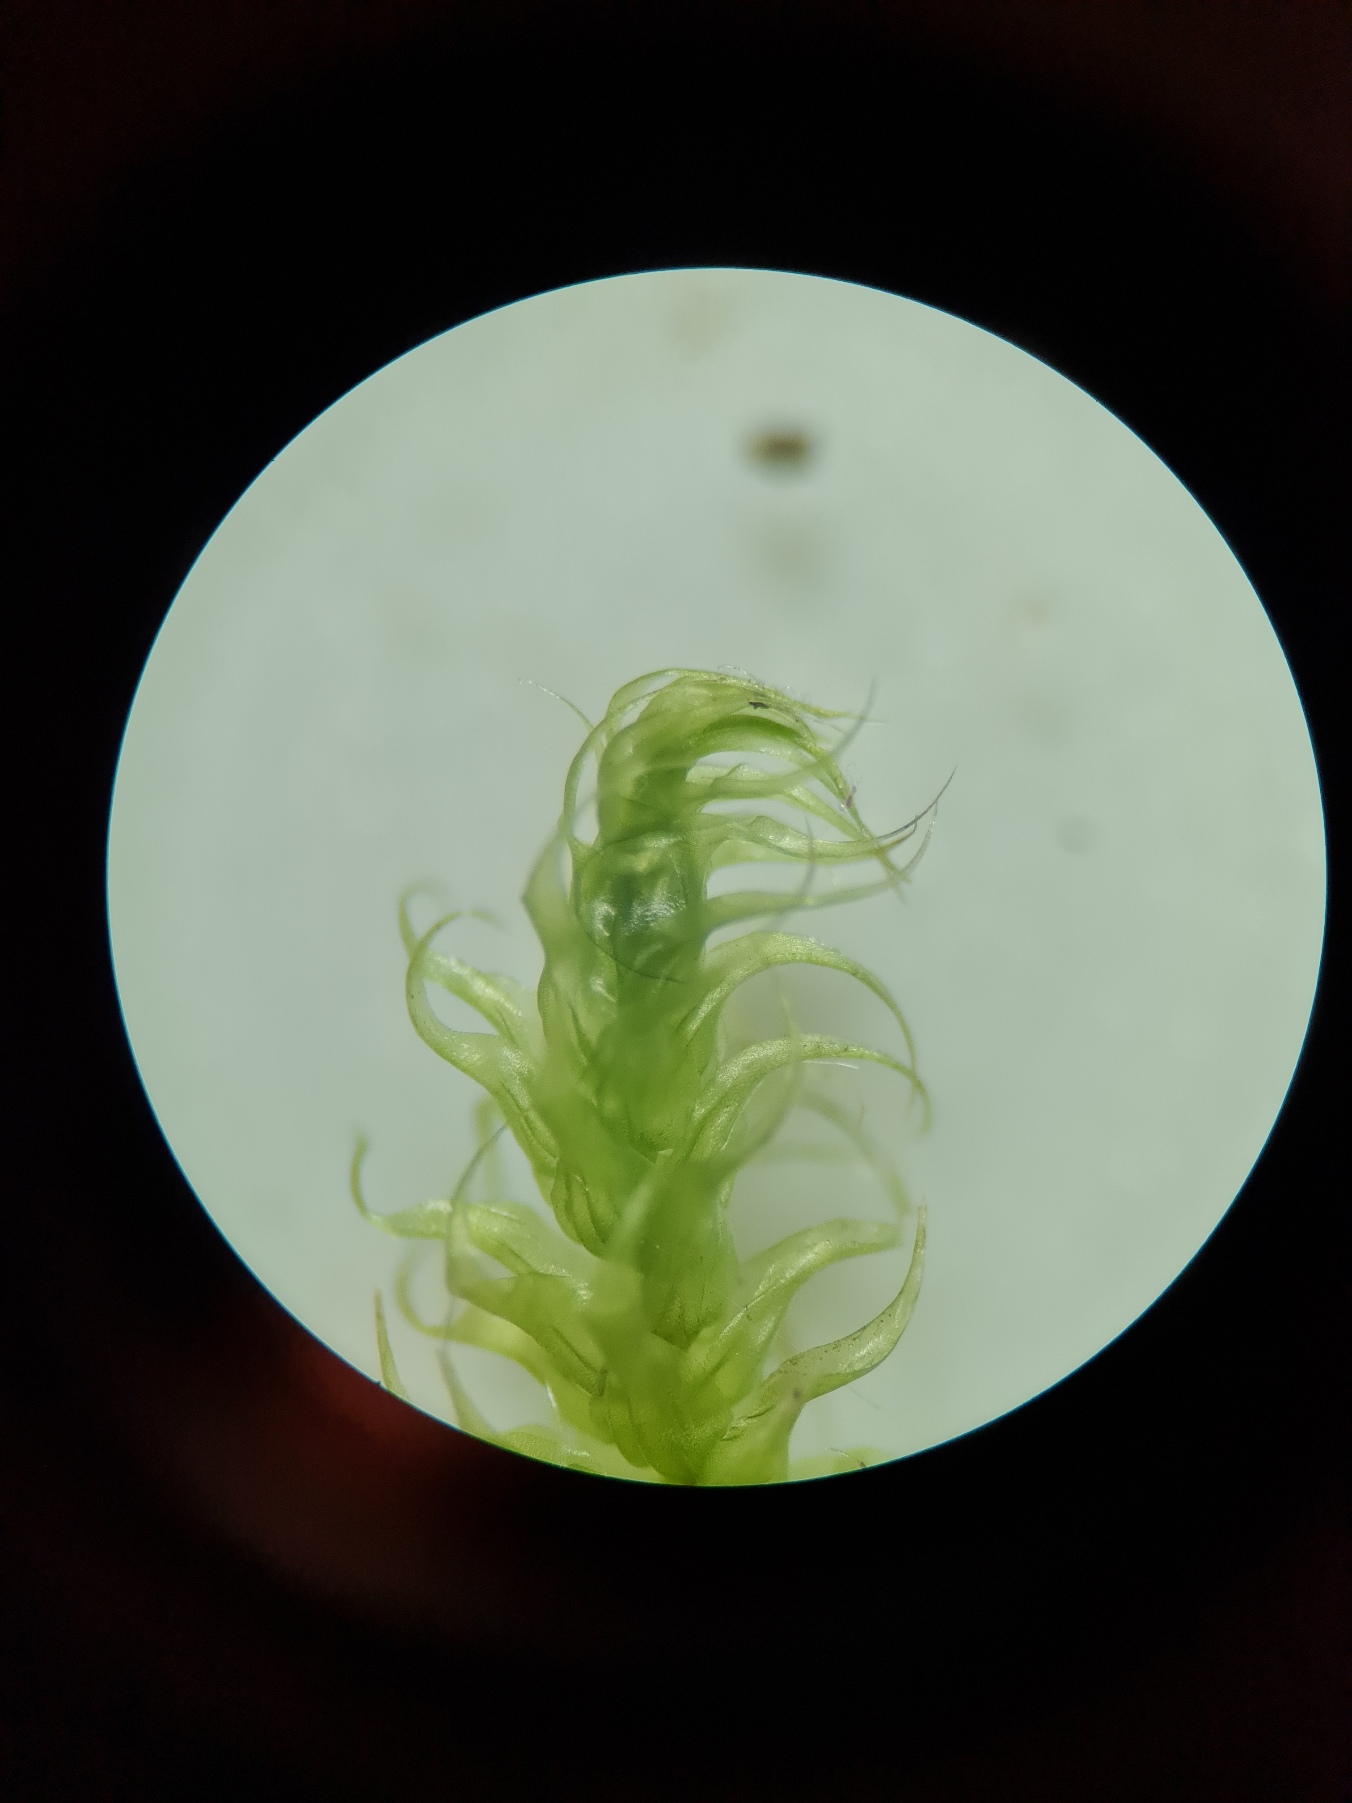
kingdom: Plantae
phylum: Bryophyta
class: Bryopsida
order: Hypnales
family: Hylocomiaceae
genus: Rhytidiadelphus
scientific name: Rhytidiadelphus loreus
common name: Ulvefod-kransemos
